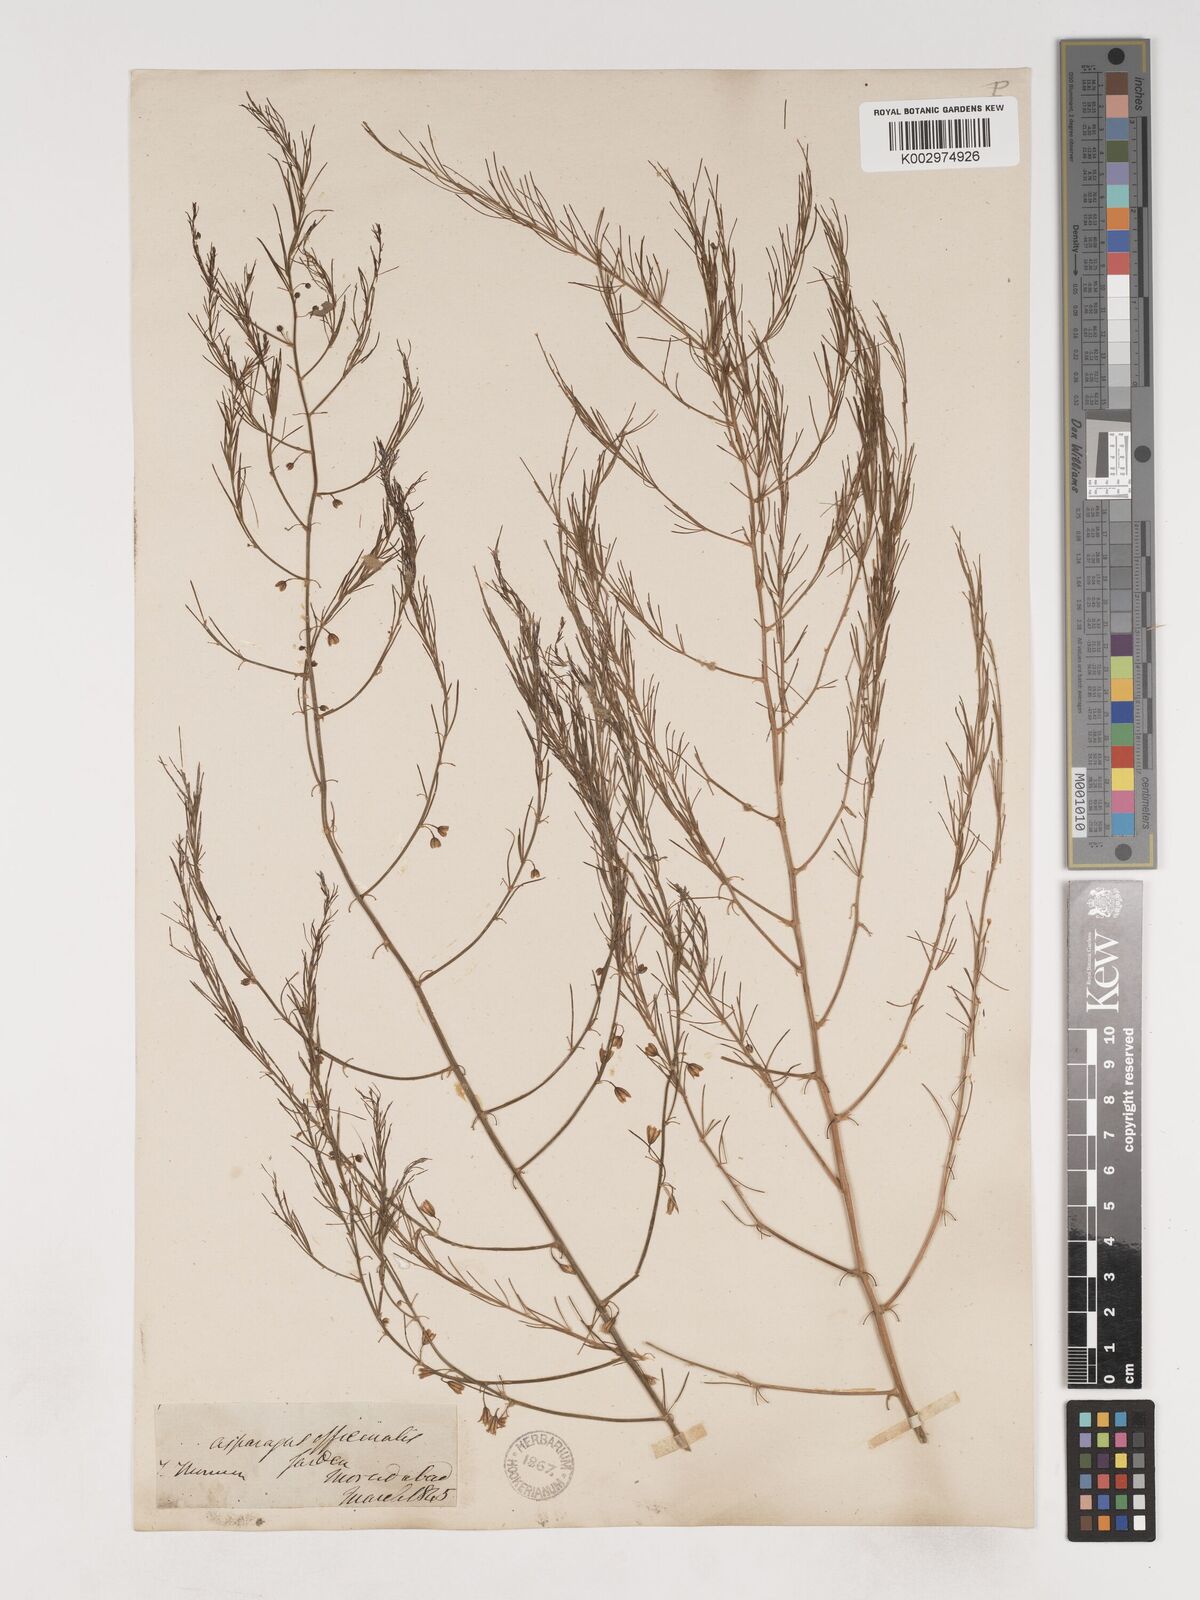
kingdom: Plantae
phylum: Tracheophyta
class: Liliopsida
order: Asparagales
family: Asparagaceae
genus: Asparagus
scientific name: Asparagus officinalis
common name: Garden asparagus
